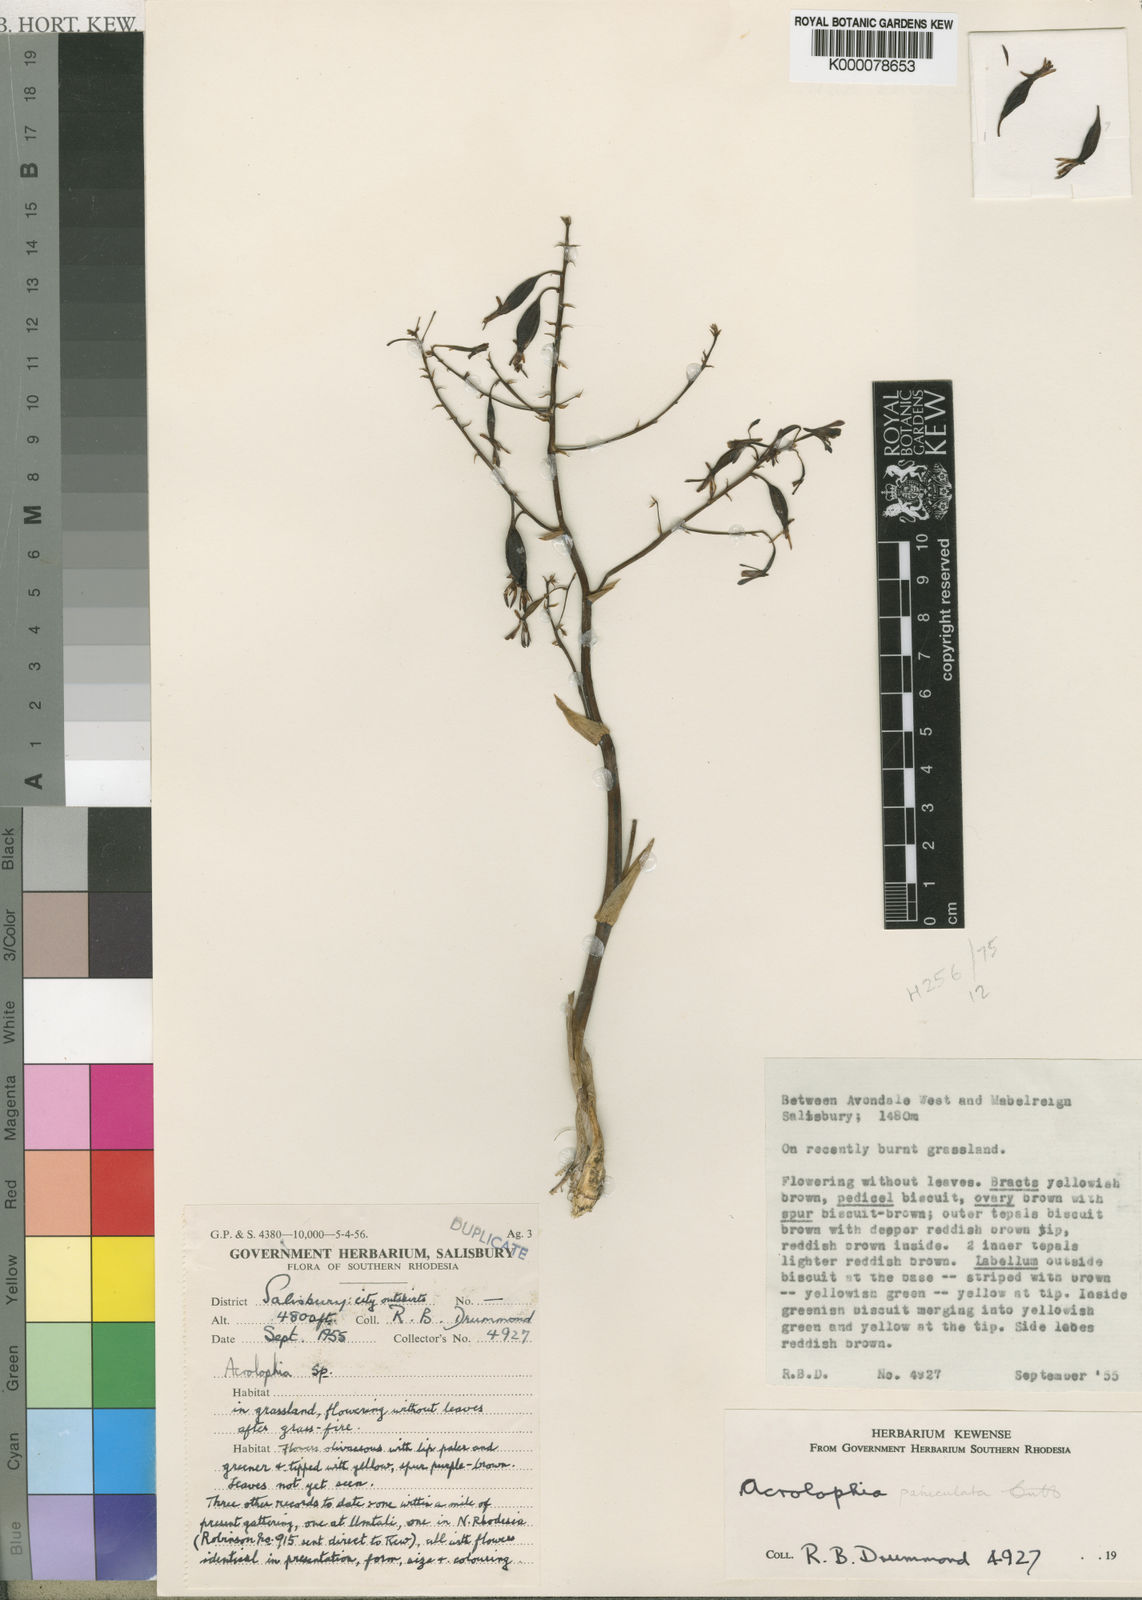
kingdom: Plantae
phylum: Tracheophyta
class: Liliopsida
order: Asparagales
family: Orchidaceae
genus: Eulophia
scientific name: Eulophia callichroma
